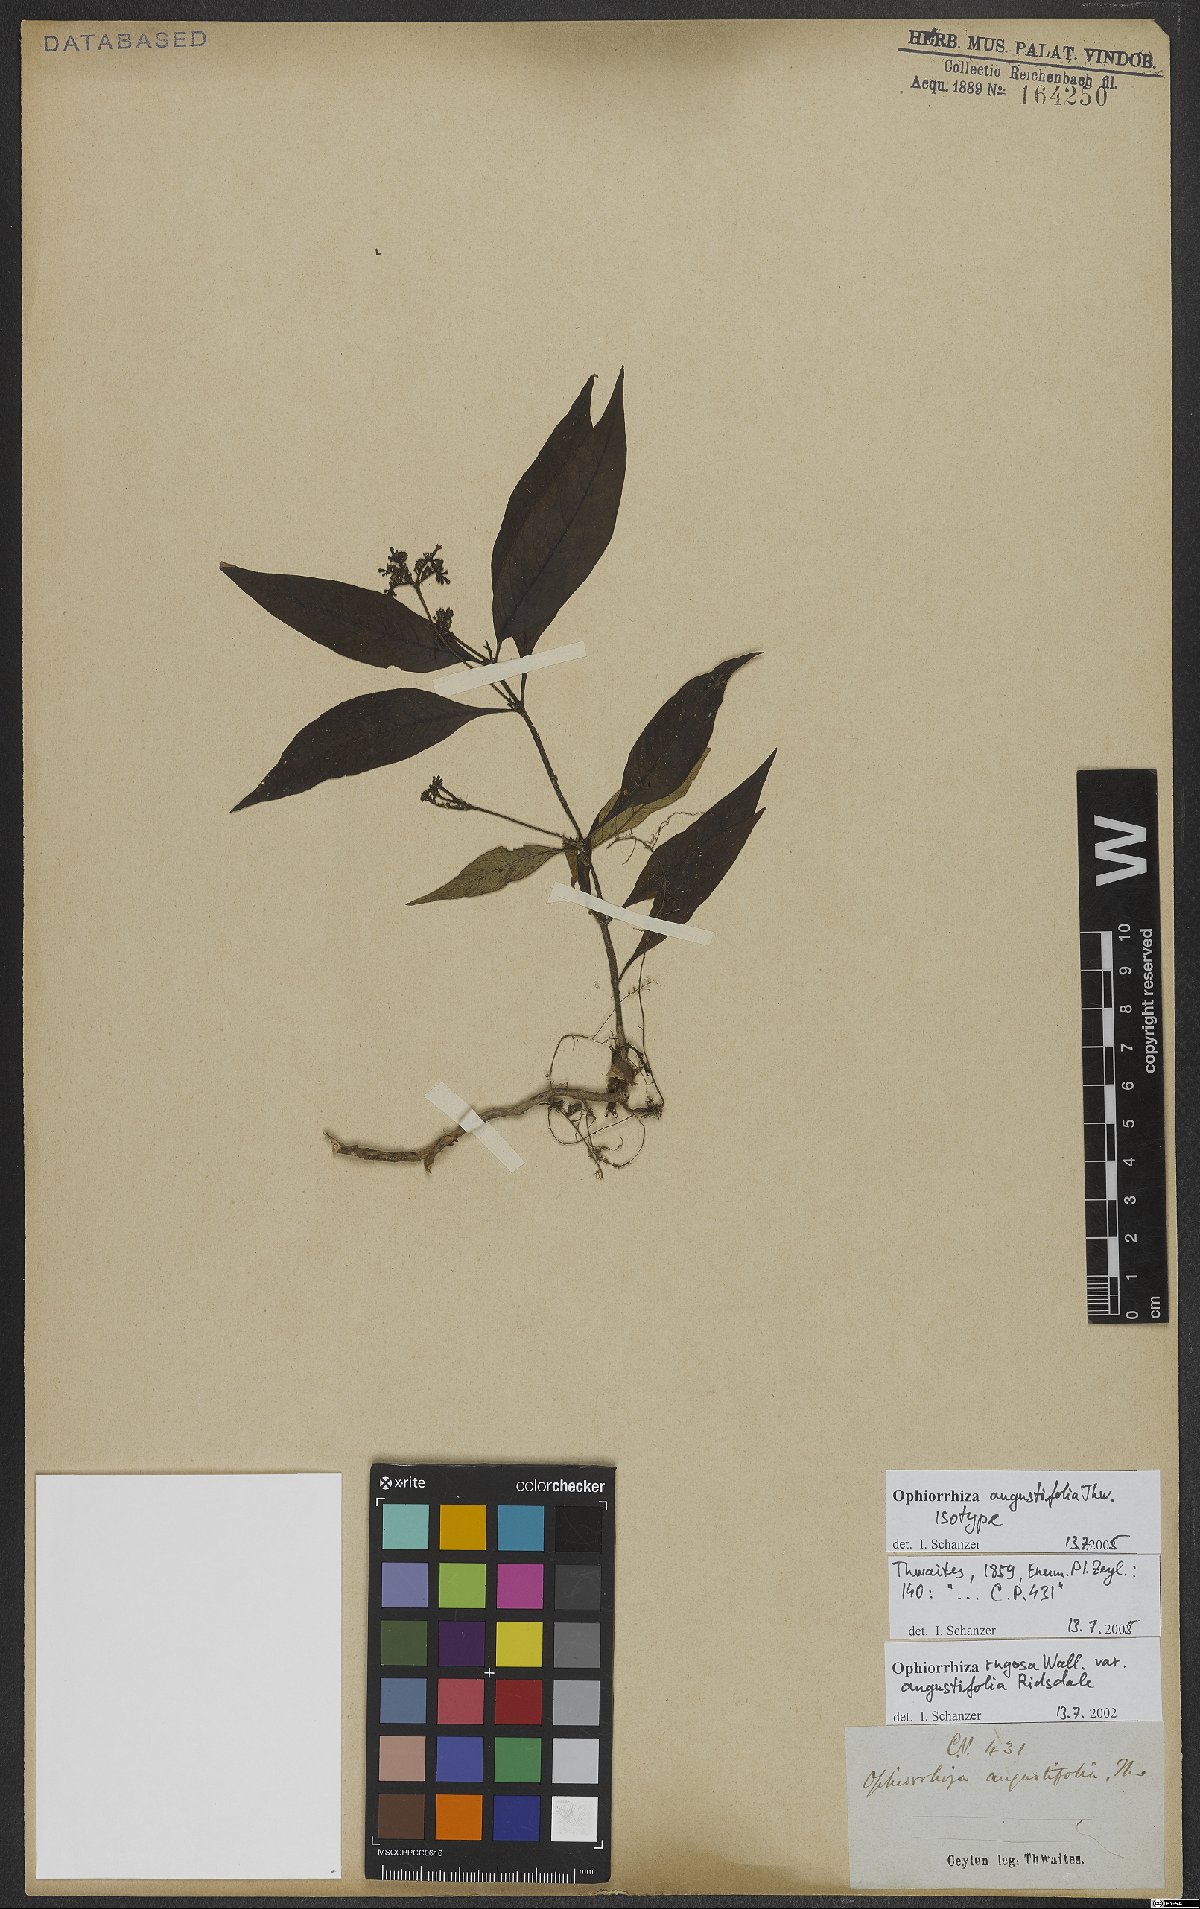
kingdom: Plantae
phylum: Tracheophyta
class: Magnoliopsida
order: Gentianales
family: Rubiaceae
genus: Ophiorrhiza
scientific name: Ophiorrhiza rugosa
